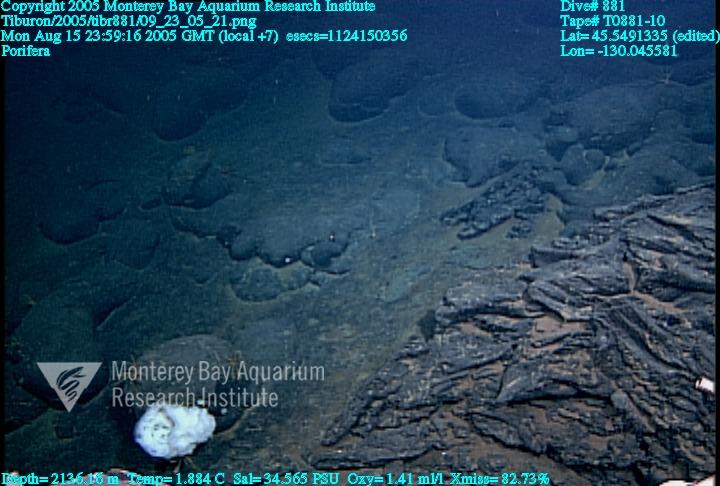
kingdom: Animalia
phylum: Porifera
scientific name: Porifera
